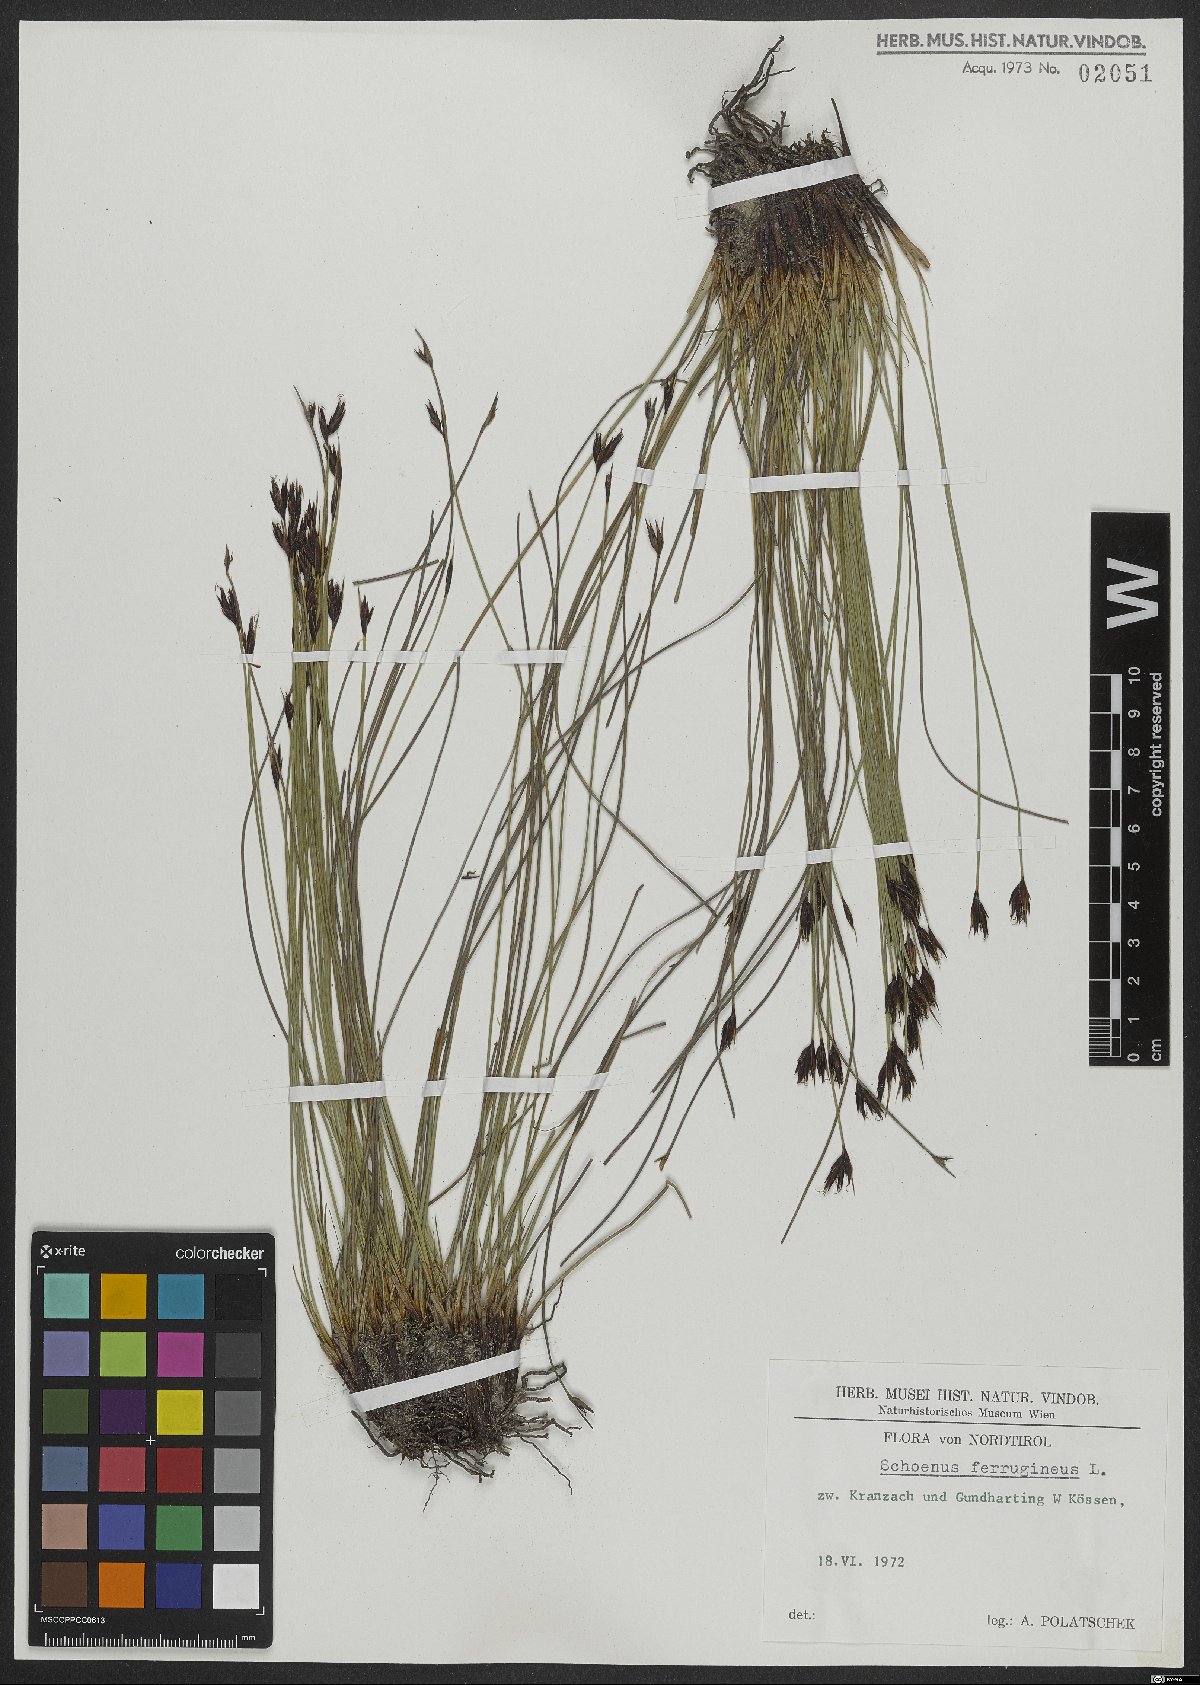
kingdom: Plantae
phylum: Tracheophyta
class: Liliopsida
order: Poales
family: Cyperaceae
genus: Schoenus
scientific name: Schoenus ferrugineus
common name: Brown bog-rush
